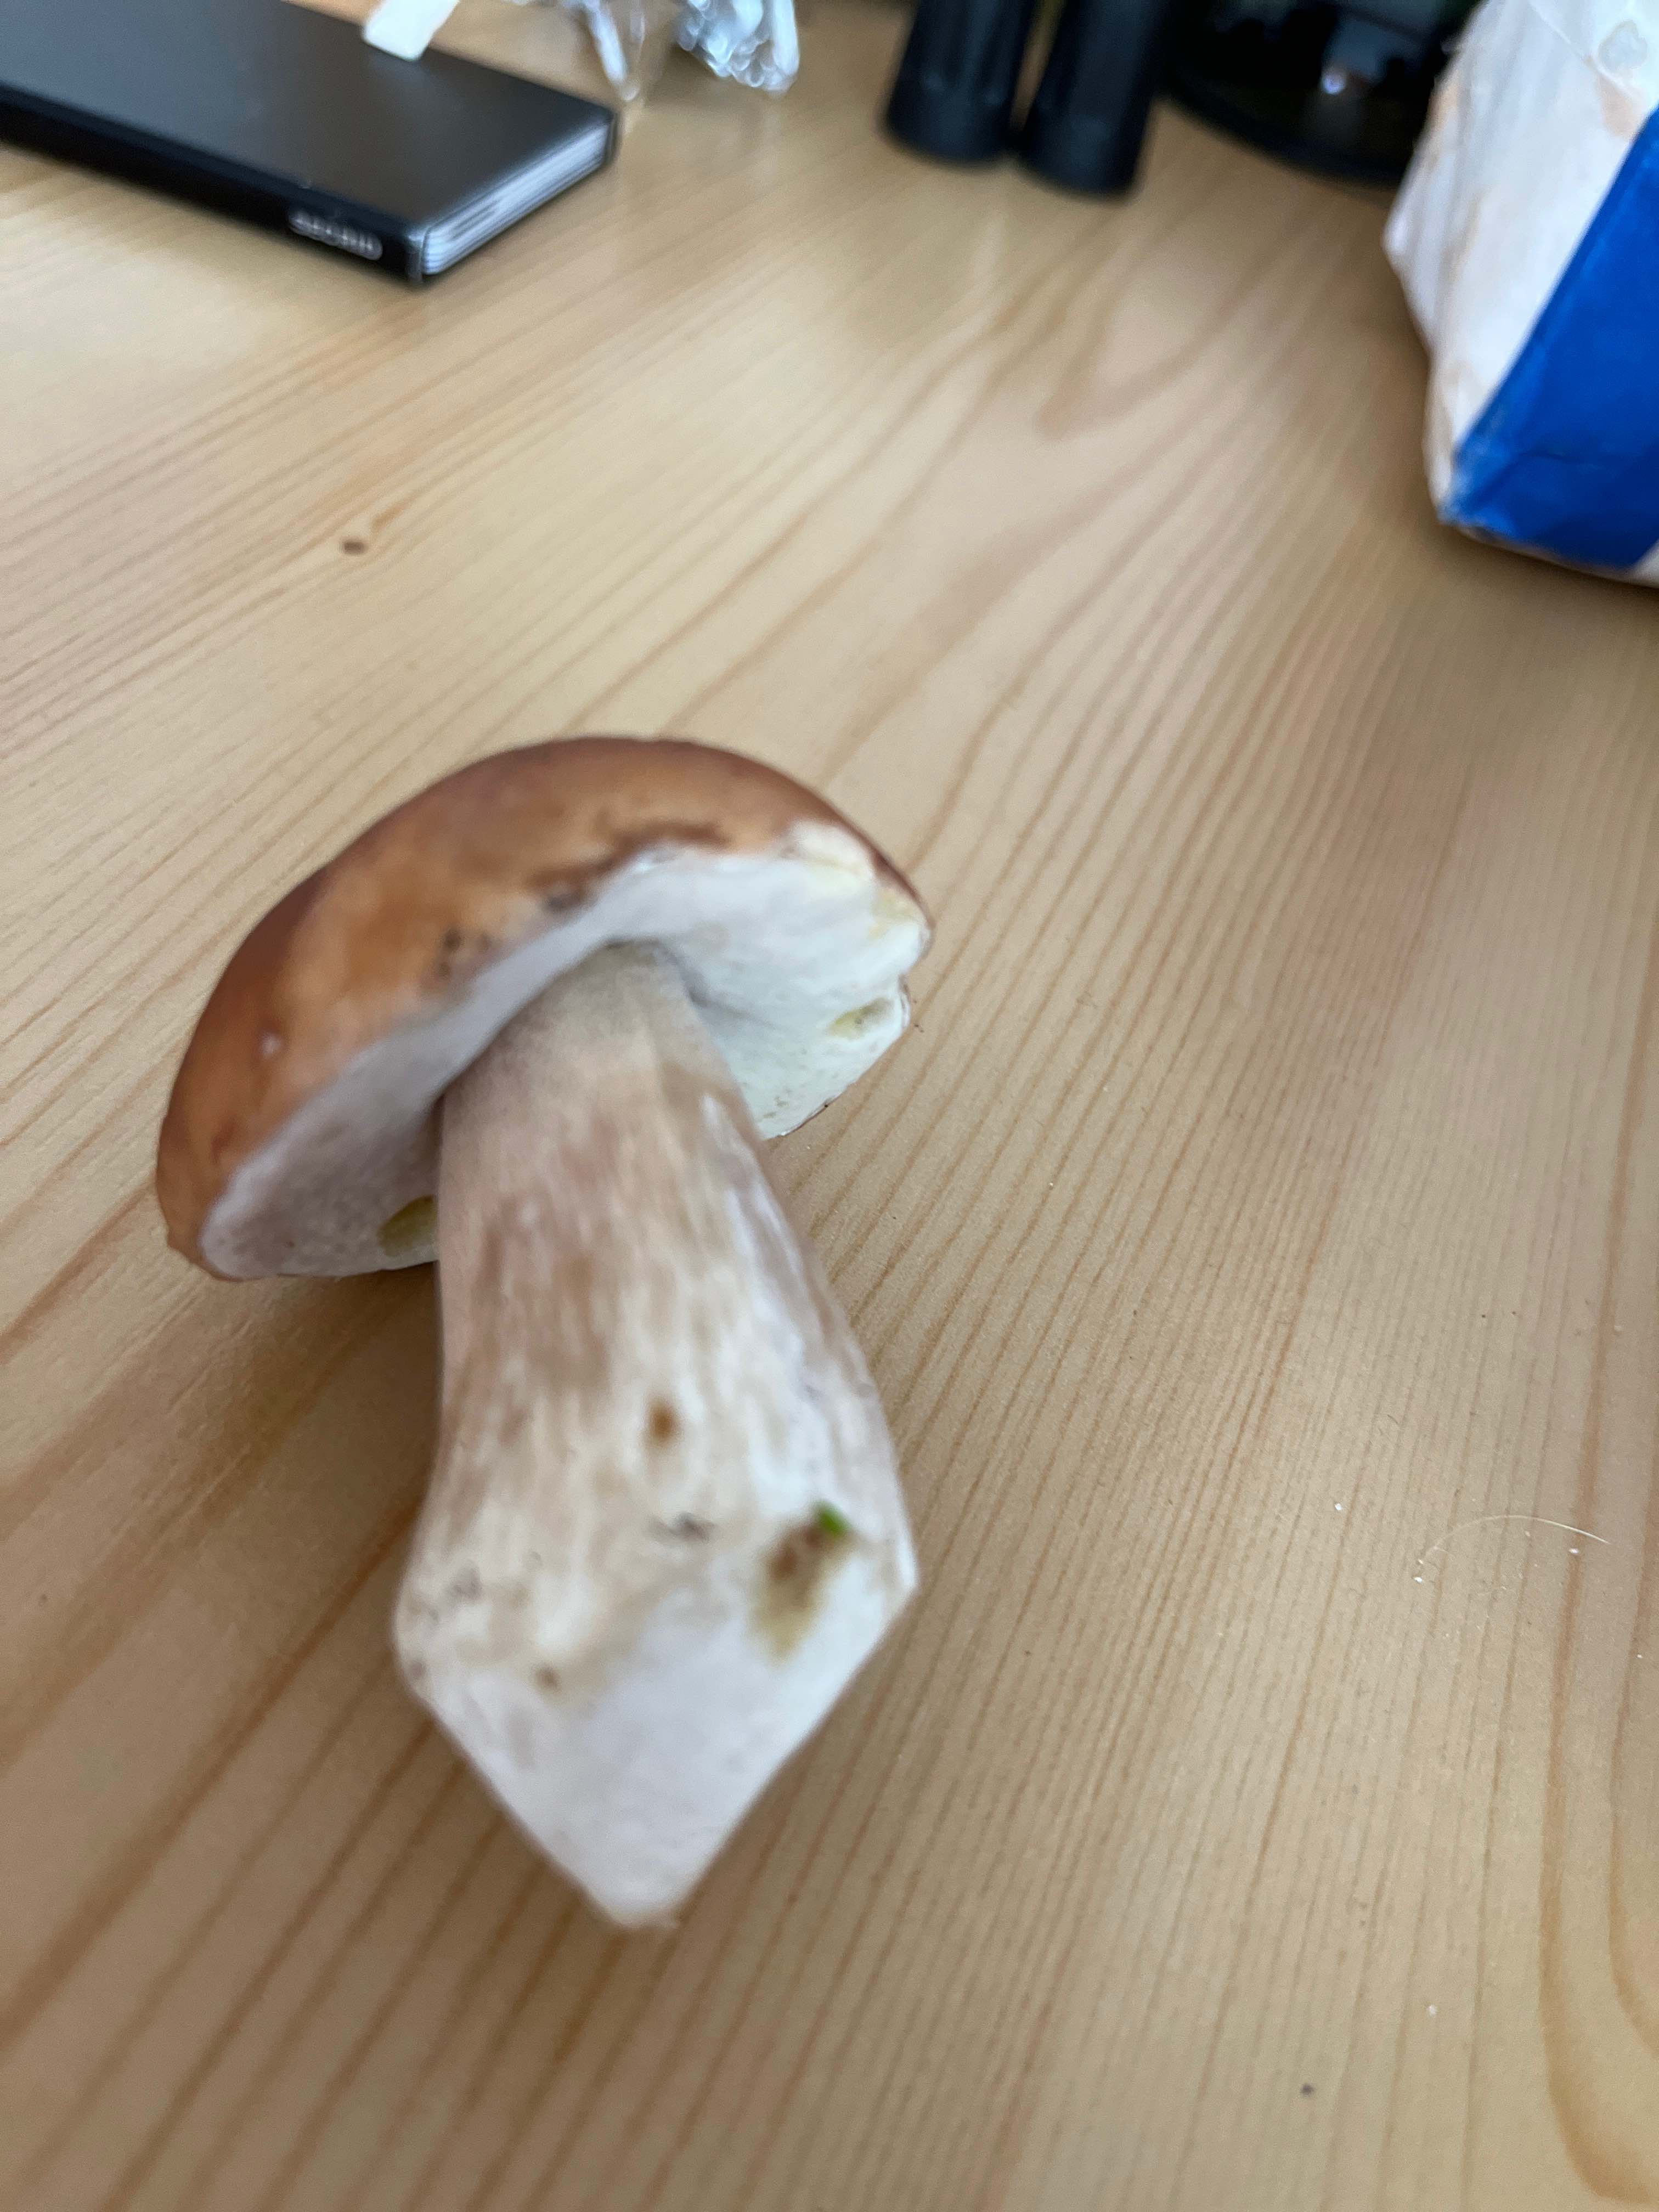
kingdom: Fungi
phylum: Basidiomycota
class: Agaricomycetes
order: Boletales
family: Boletaceae
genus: Boletus
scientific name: Boletus edulis
